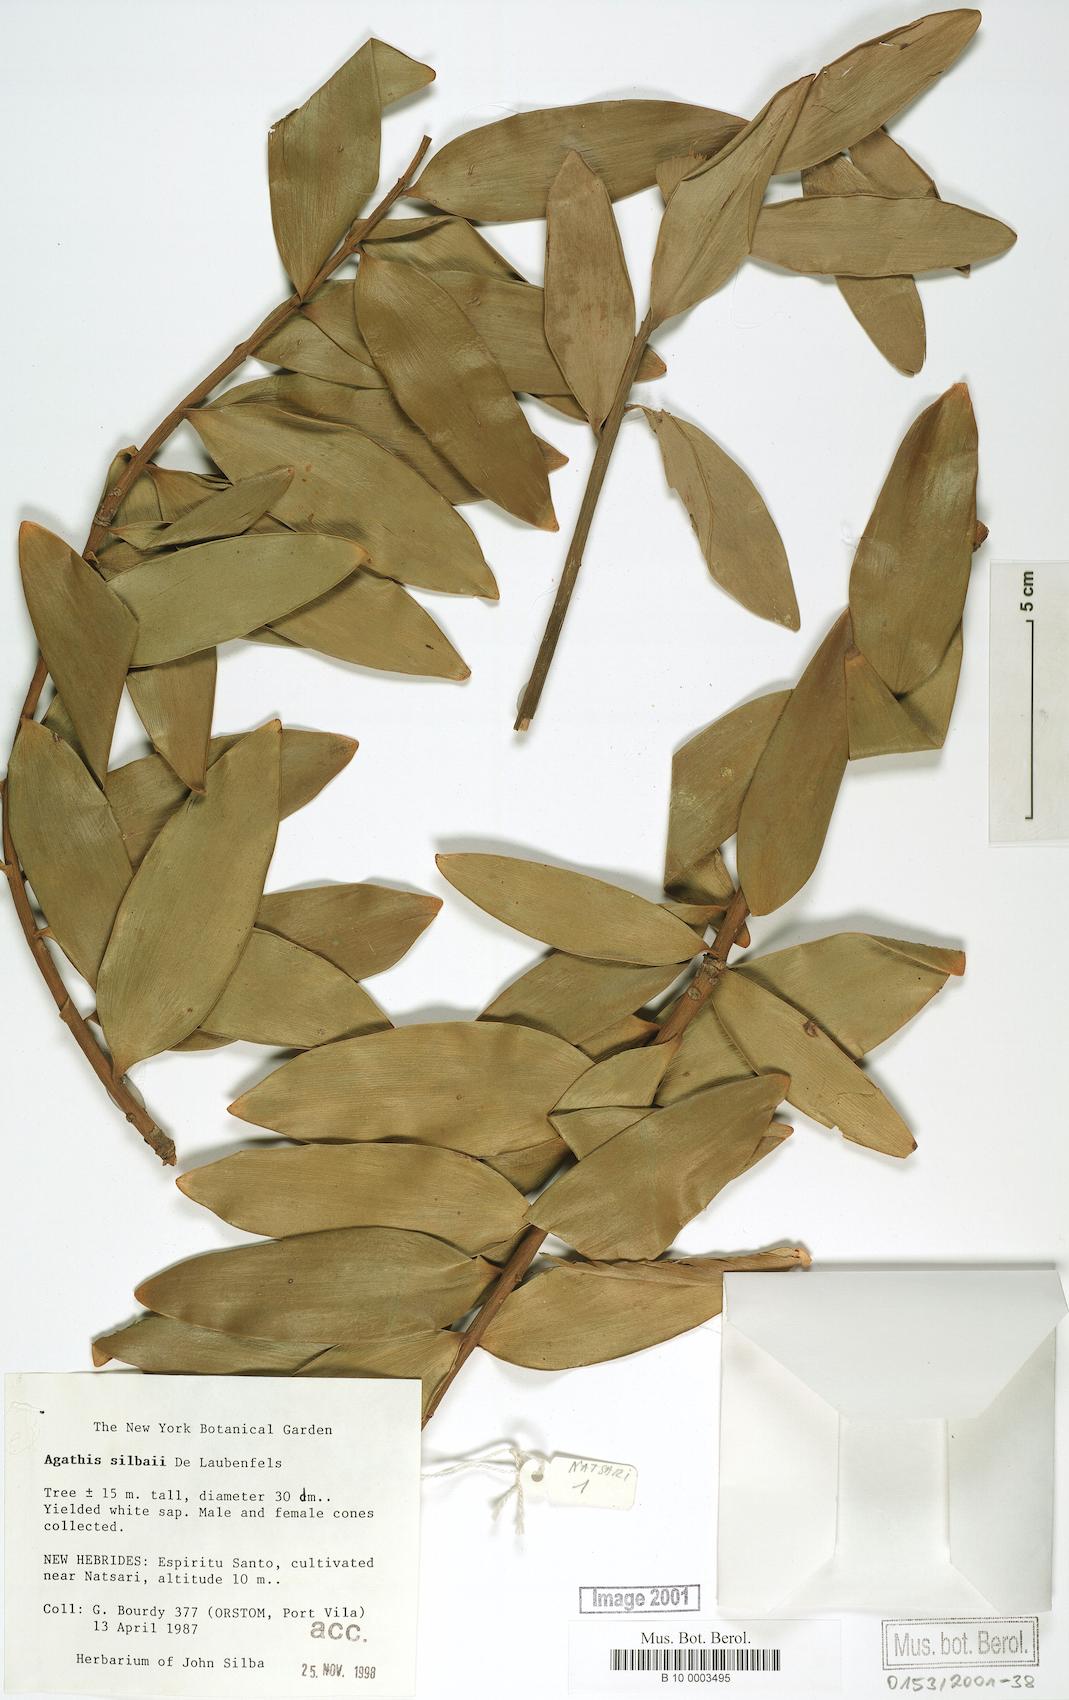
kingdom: Plantae
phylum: Tracheophyta
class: Pinopsida
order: Pinales
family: Araucariaceae
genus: Agathis
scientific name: Agathis silbae
